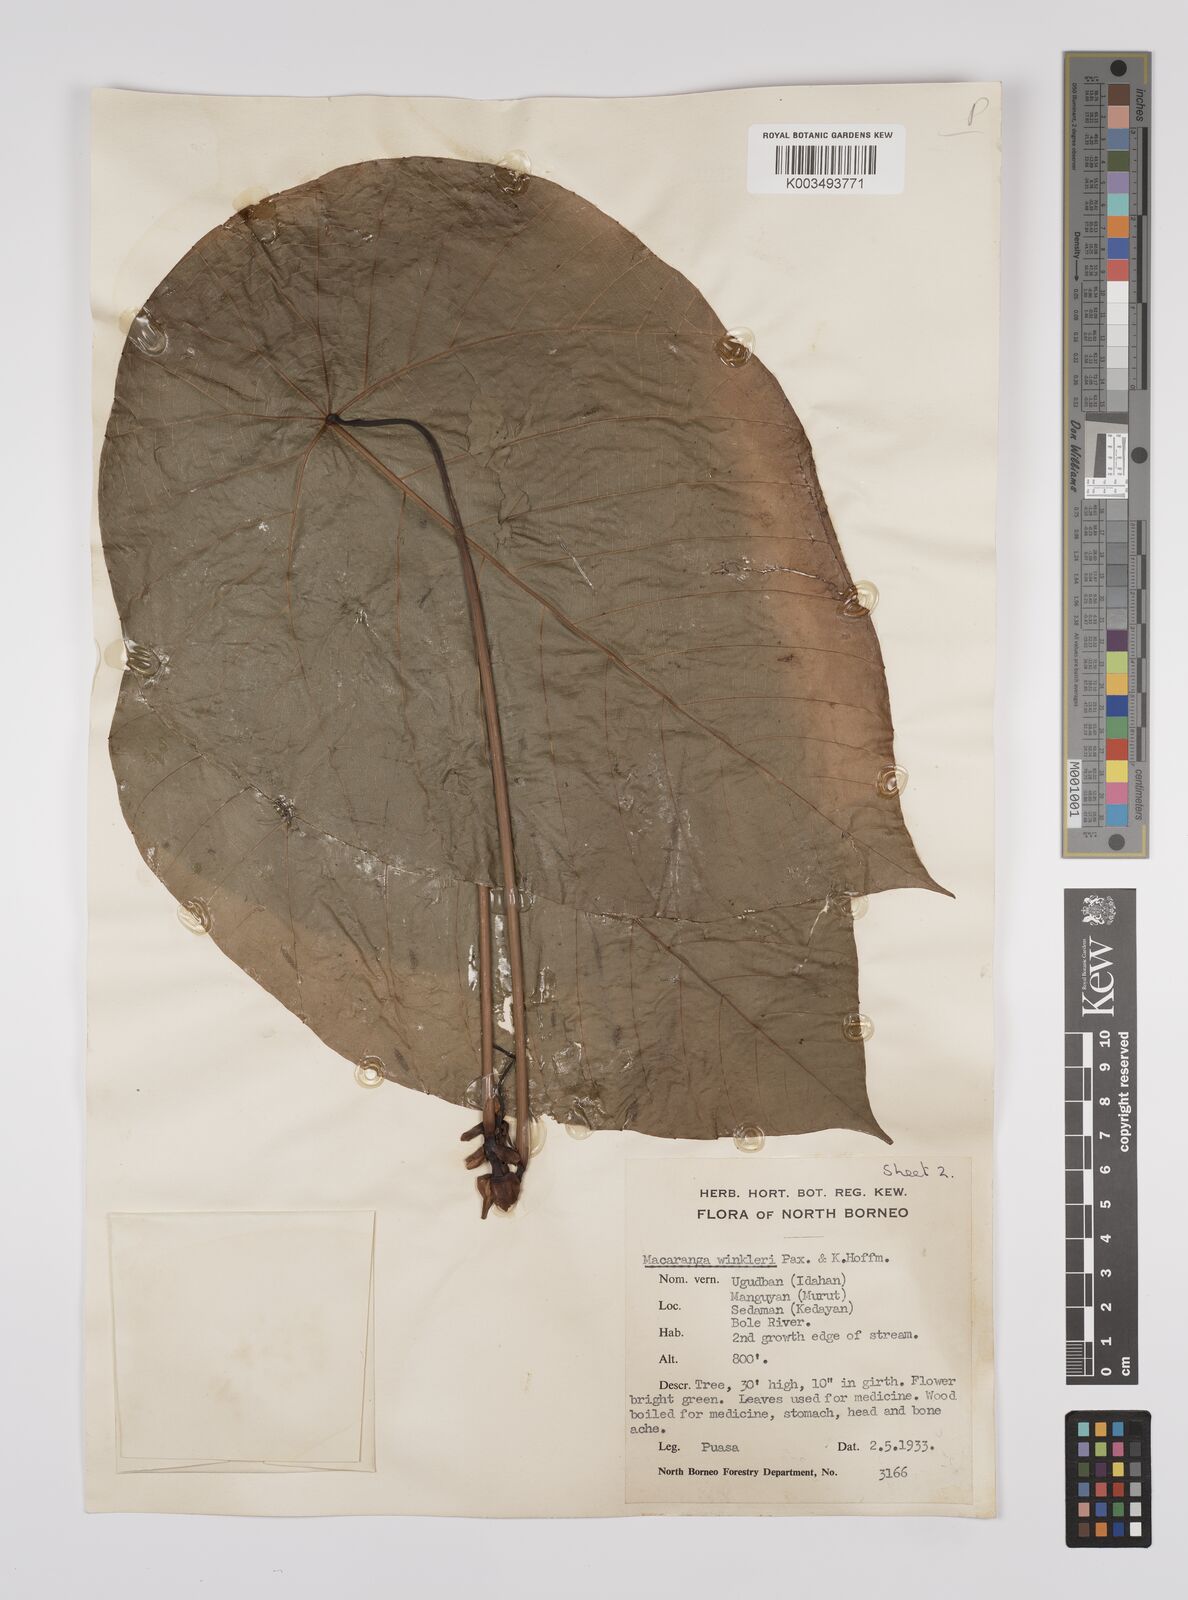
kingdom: Plantae
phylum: Tracheophyta
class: Magnoliopsida
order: Malpighiales
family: Euphorbiaceae
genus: Macaranga
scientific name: Macaranga winkleri
